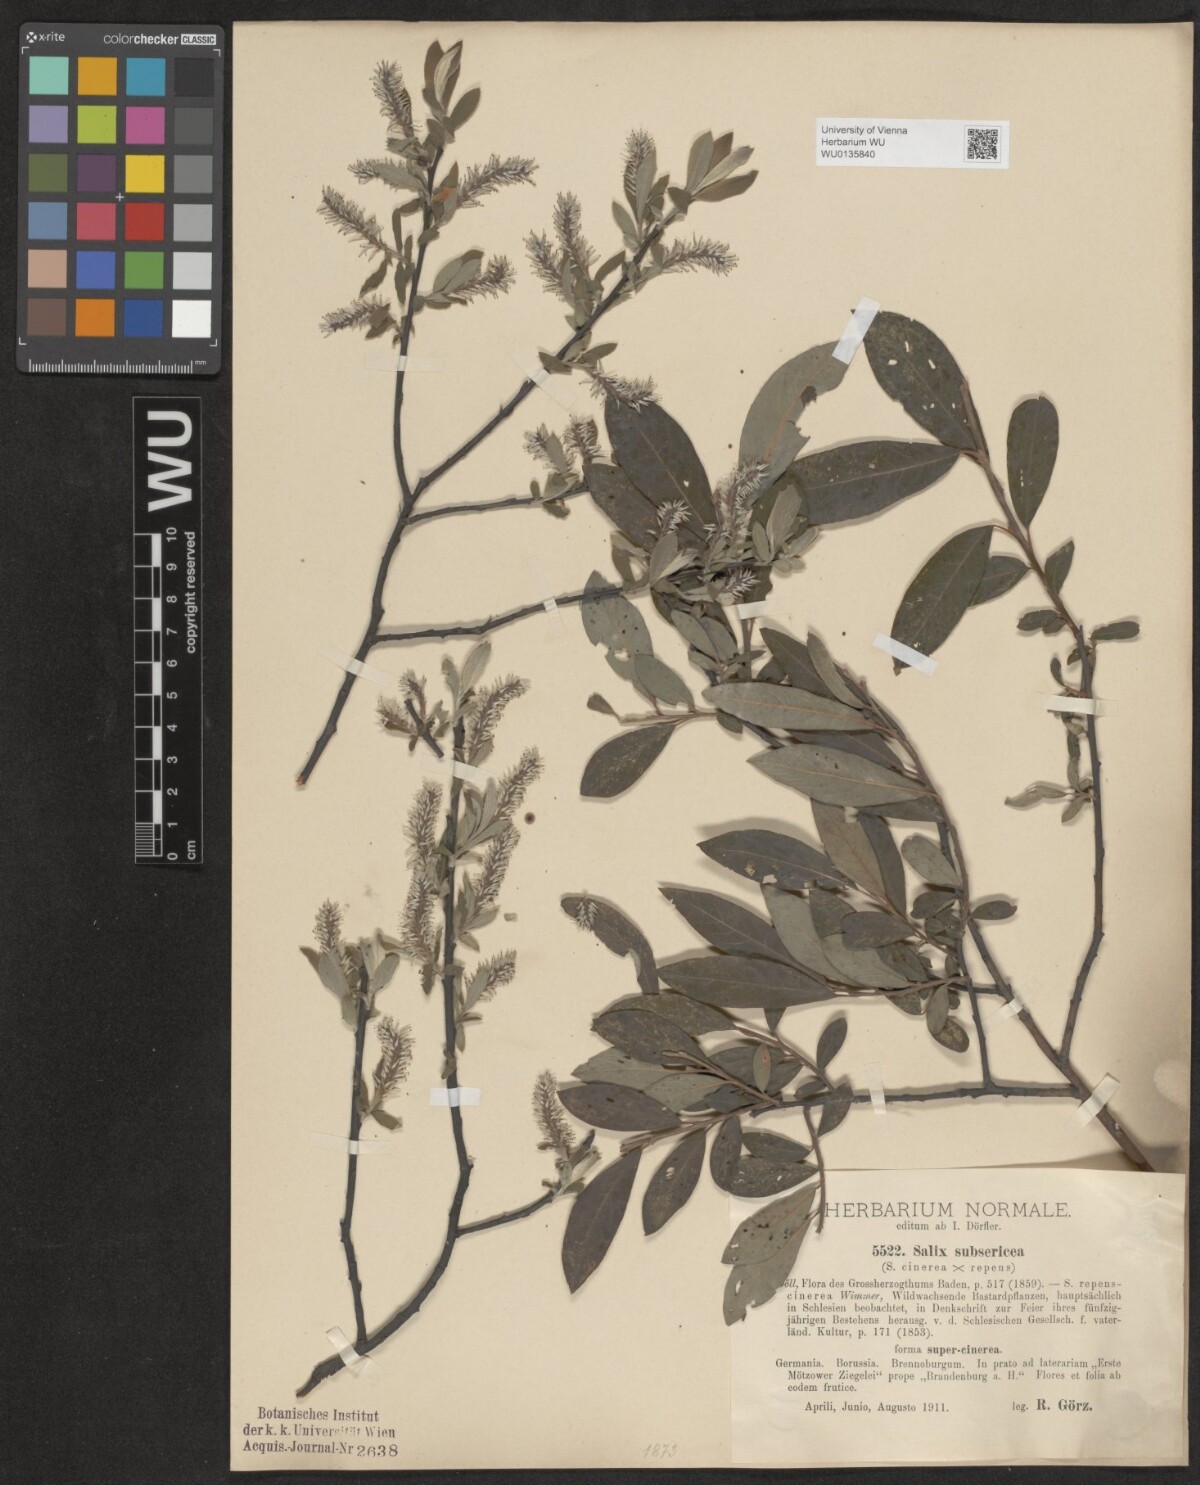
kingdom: Plantae
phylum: Tracheophyta
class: Magnoliopsida
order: Malpighiales
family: Salicaceae
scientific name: Salicaceae
